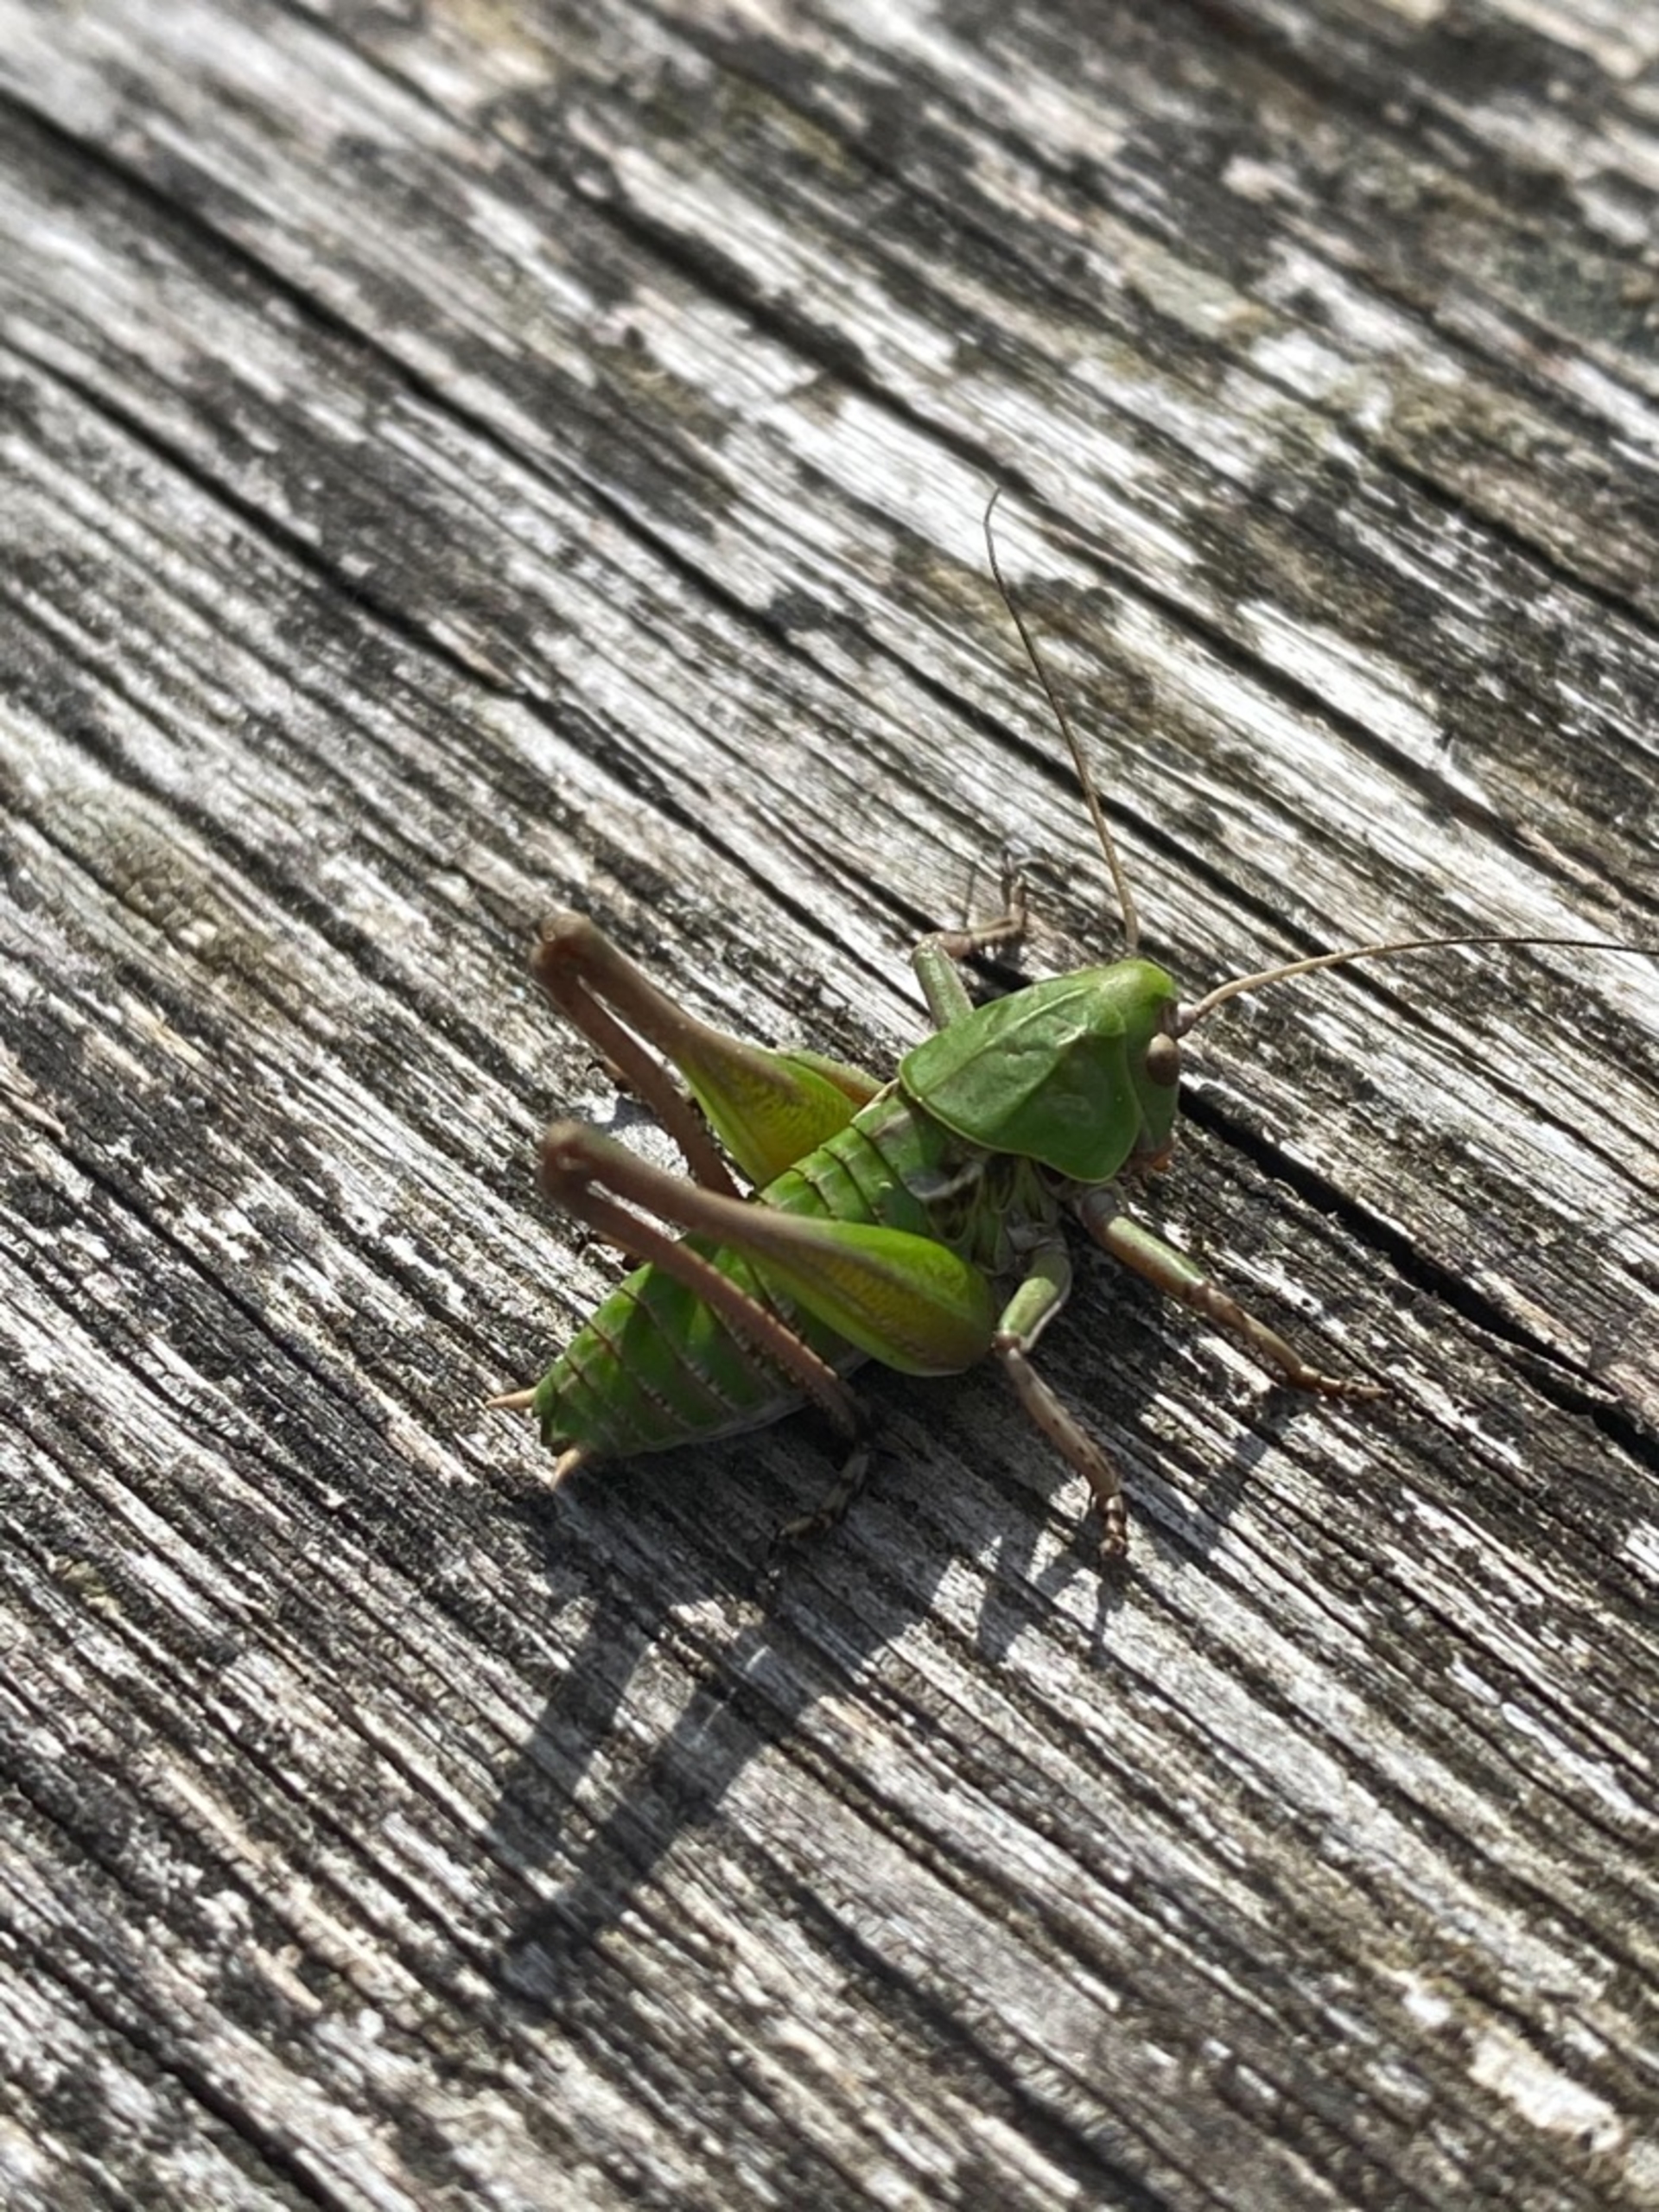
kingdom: Animalia
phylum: Arthropoda
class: Insecta
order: Orthoptera
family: Tettigoniidae
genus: Decticus
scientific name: Decticus verrucivorus
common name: Vortebider
